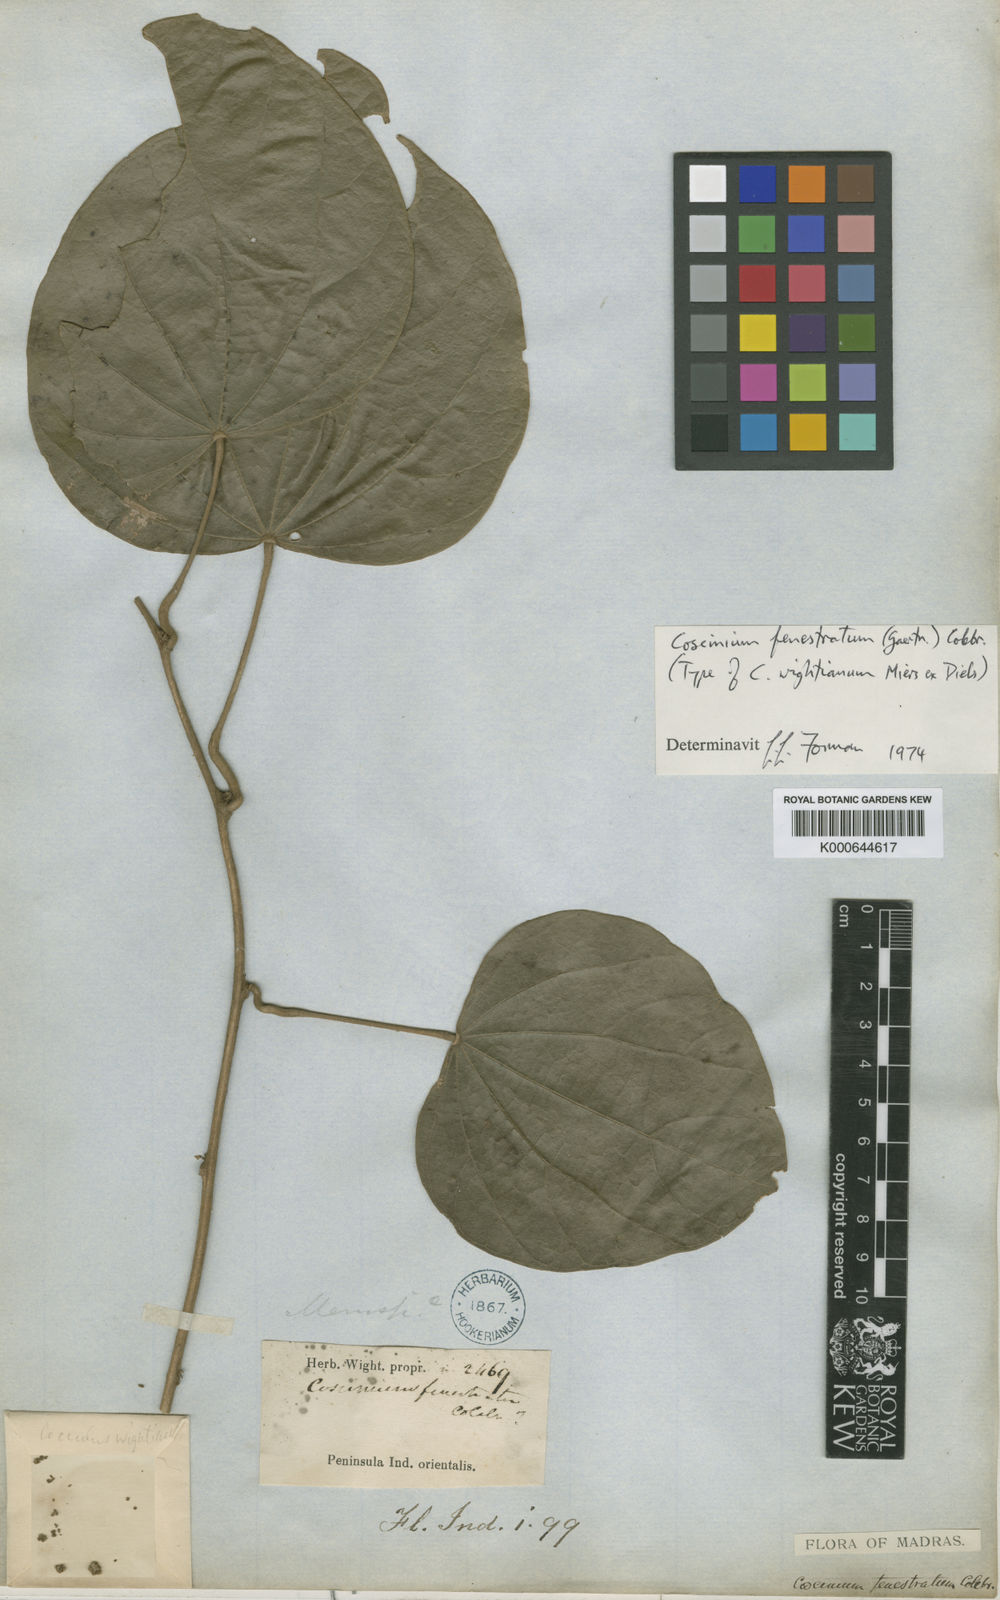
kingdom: Plantae
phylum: Tracheophyta
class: Magnoliopsida
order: Ranunculales
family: Menispermaceae
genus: Coscinium
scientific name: Coscinium fenestratum
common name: False calumba
